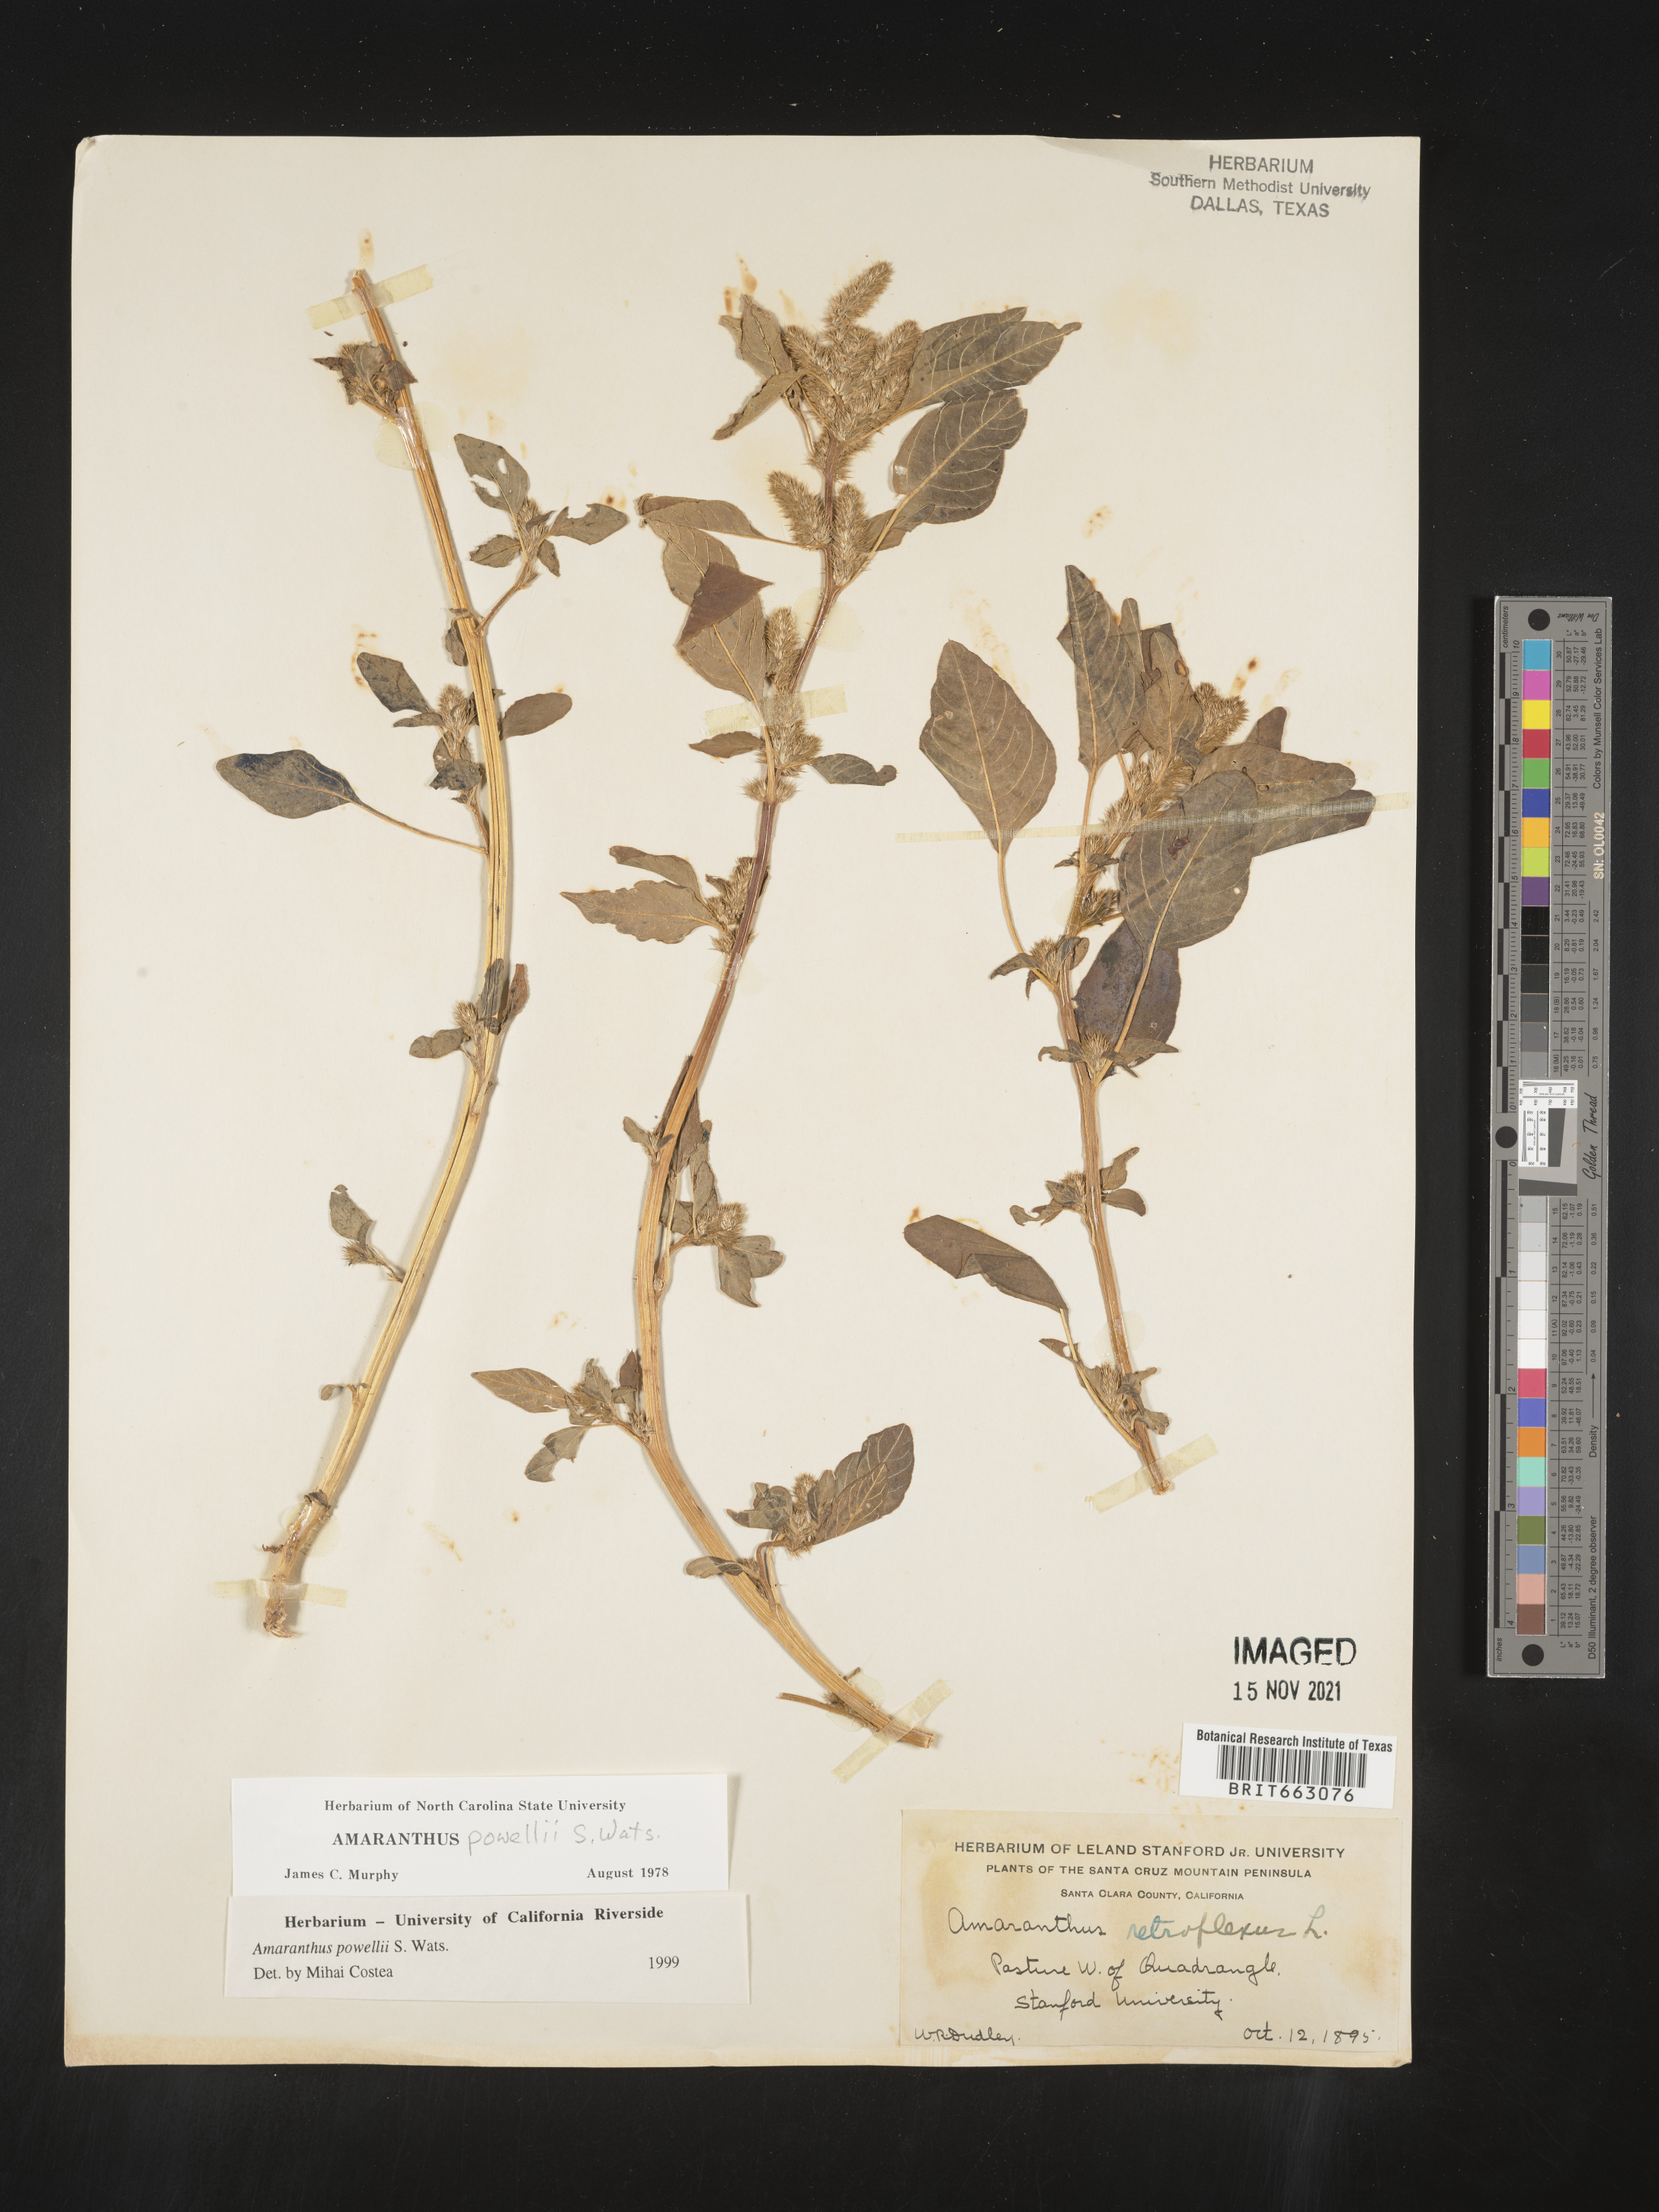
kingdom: Plantae
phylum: Tracheophyta
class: Magnoliopsida
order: Caryophyllales
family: Amaranthaceae
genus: Amaranthus
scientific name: Amaranthus powellii
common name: Powell's amaranth
